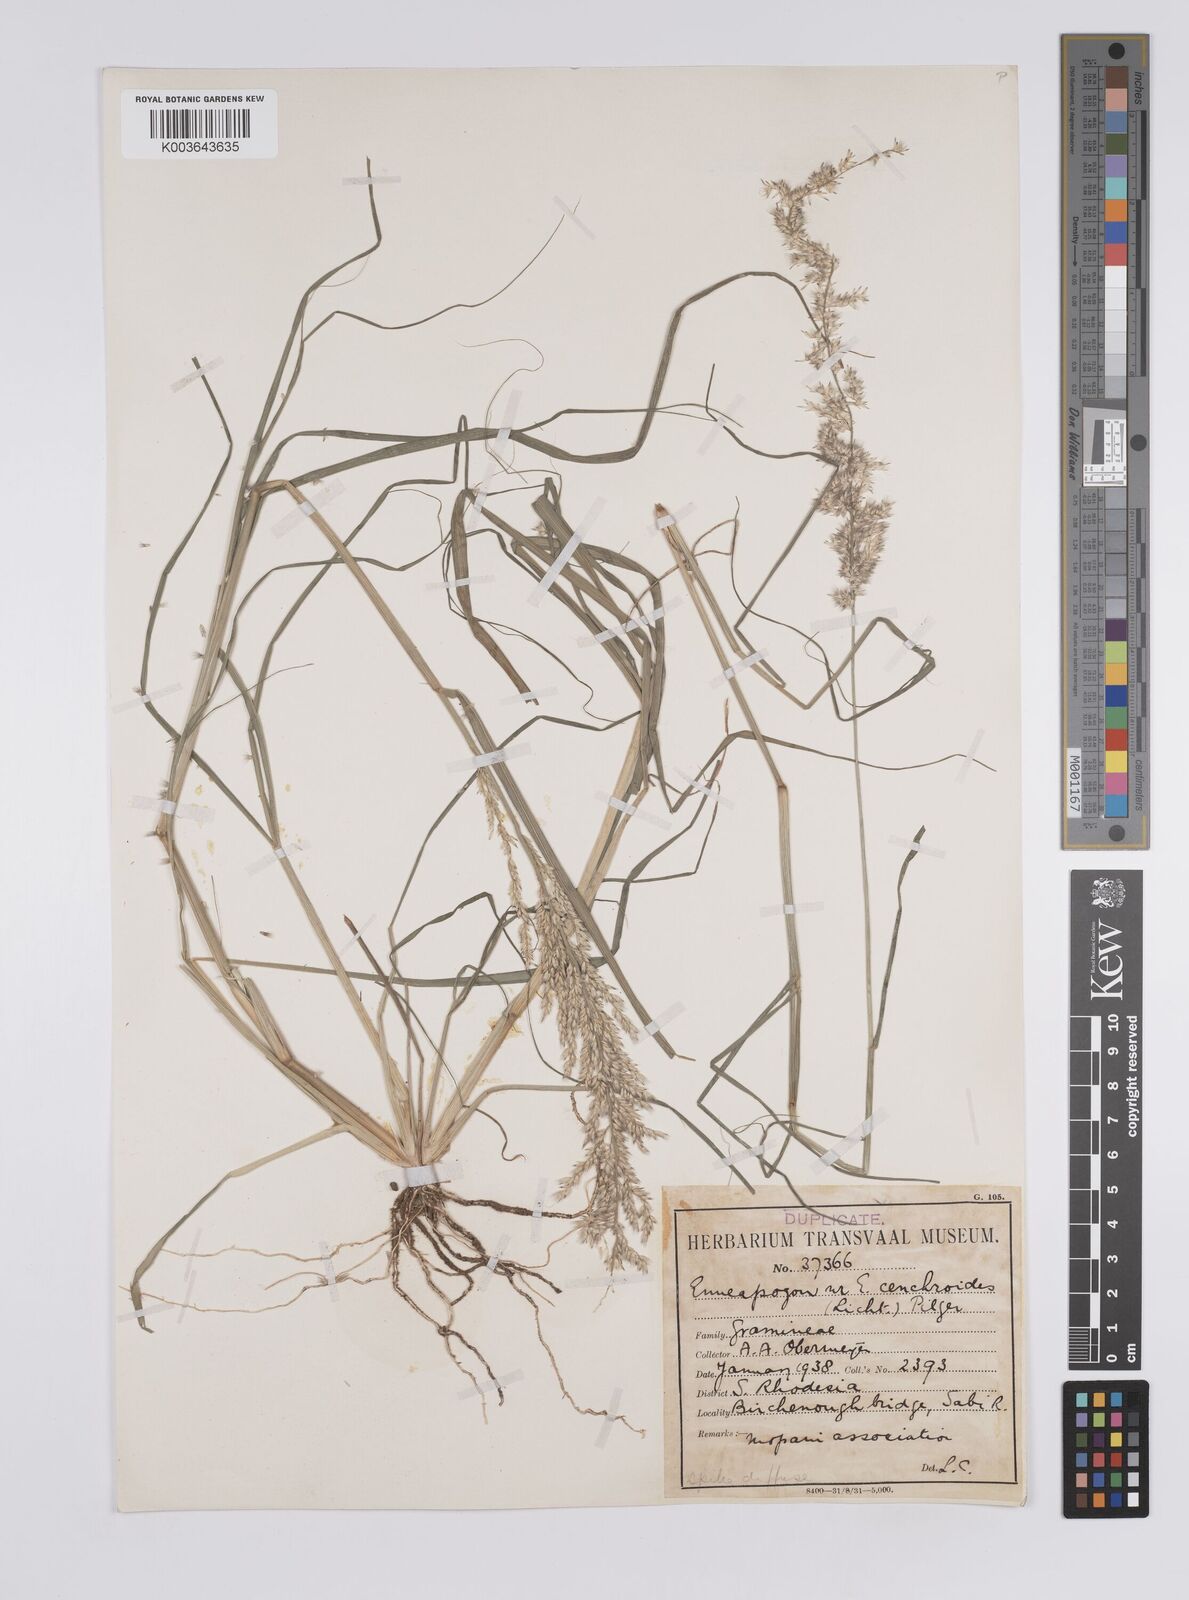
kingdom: Plantae
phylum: Tracheophyta
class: Liliopsida
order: Poales
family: Poaceae
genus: Enneapogon
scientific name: Enneapogon cenchroides
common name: Soft feather pappusgrass
